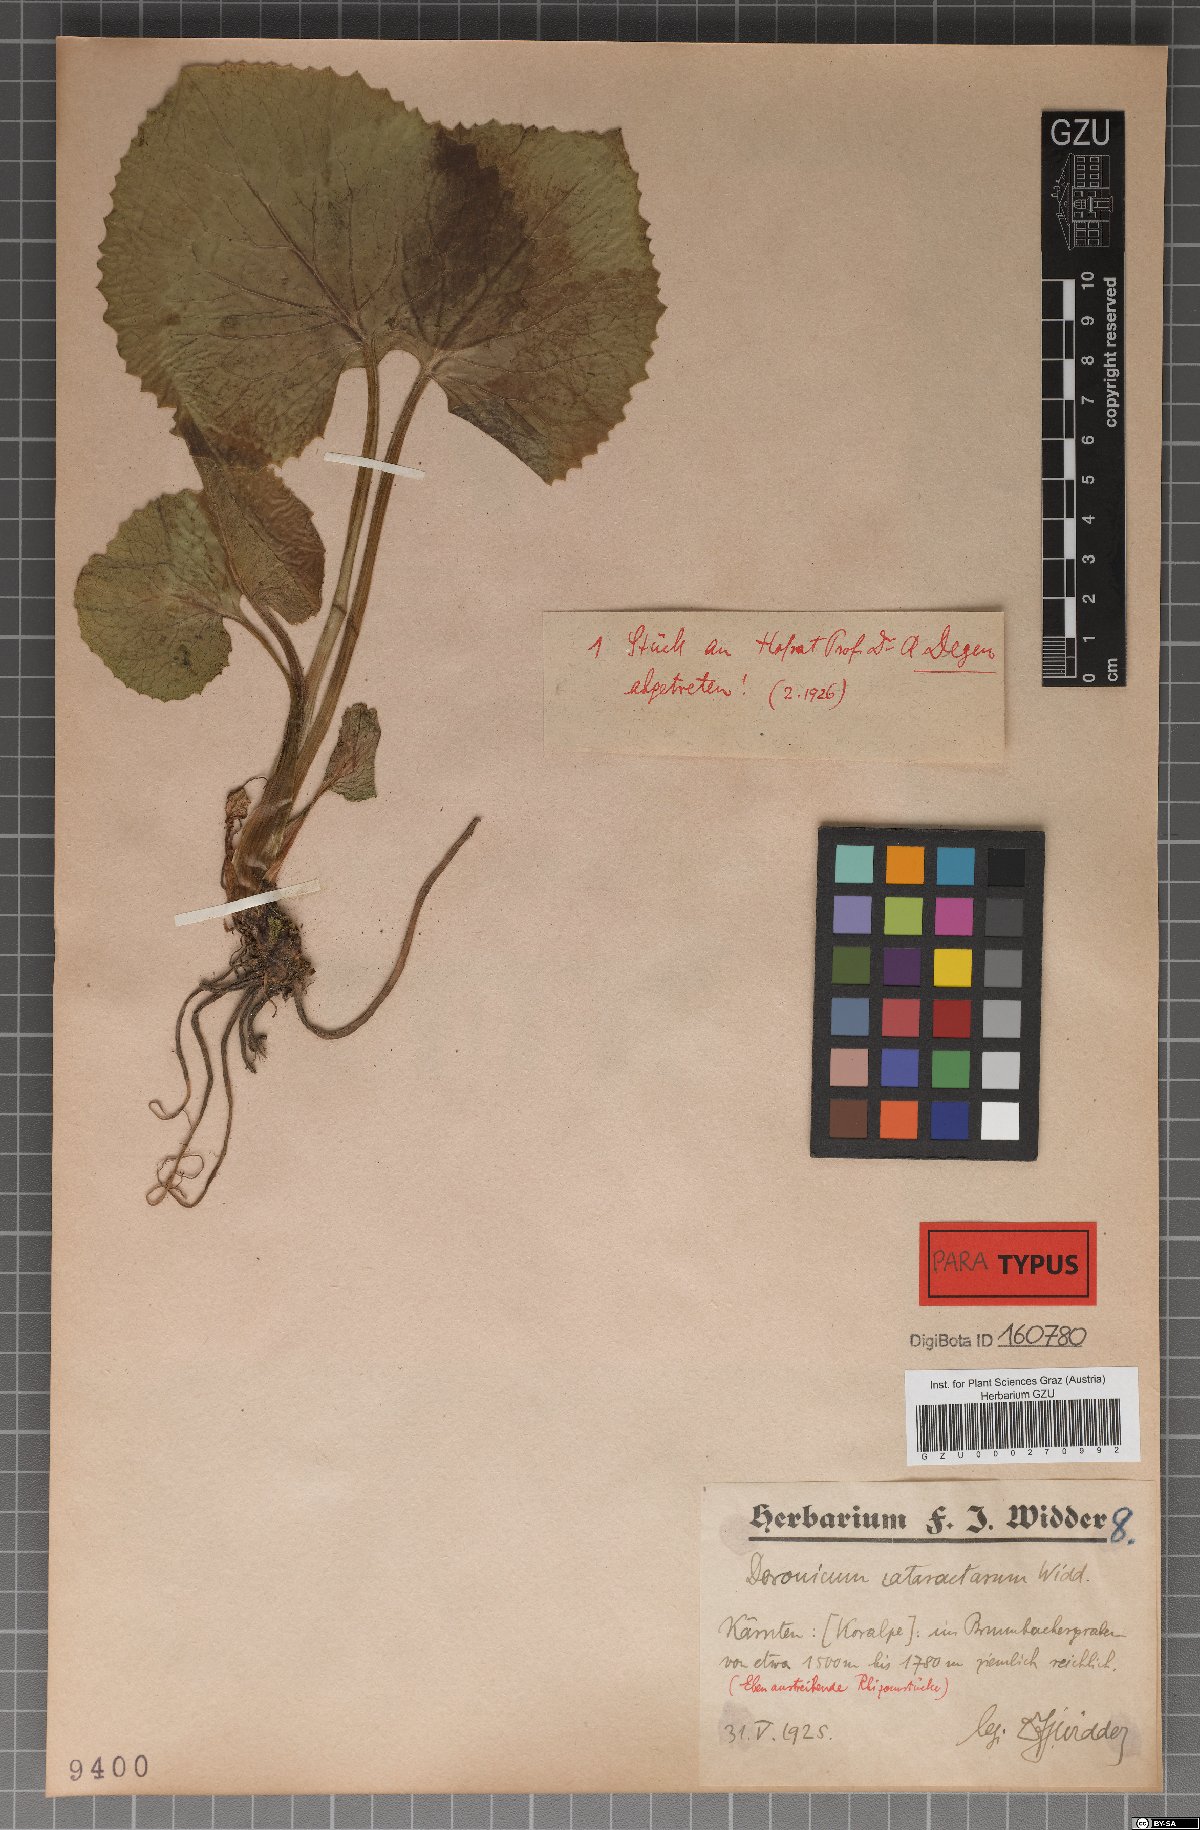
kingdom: Plantae
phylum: Tracheophyta
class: Magnoliopsida
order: Asterales
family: Asteraceae
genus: Doronicum
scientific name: Doronicum cataractarum
